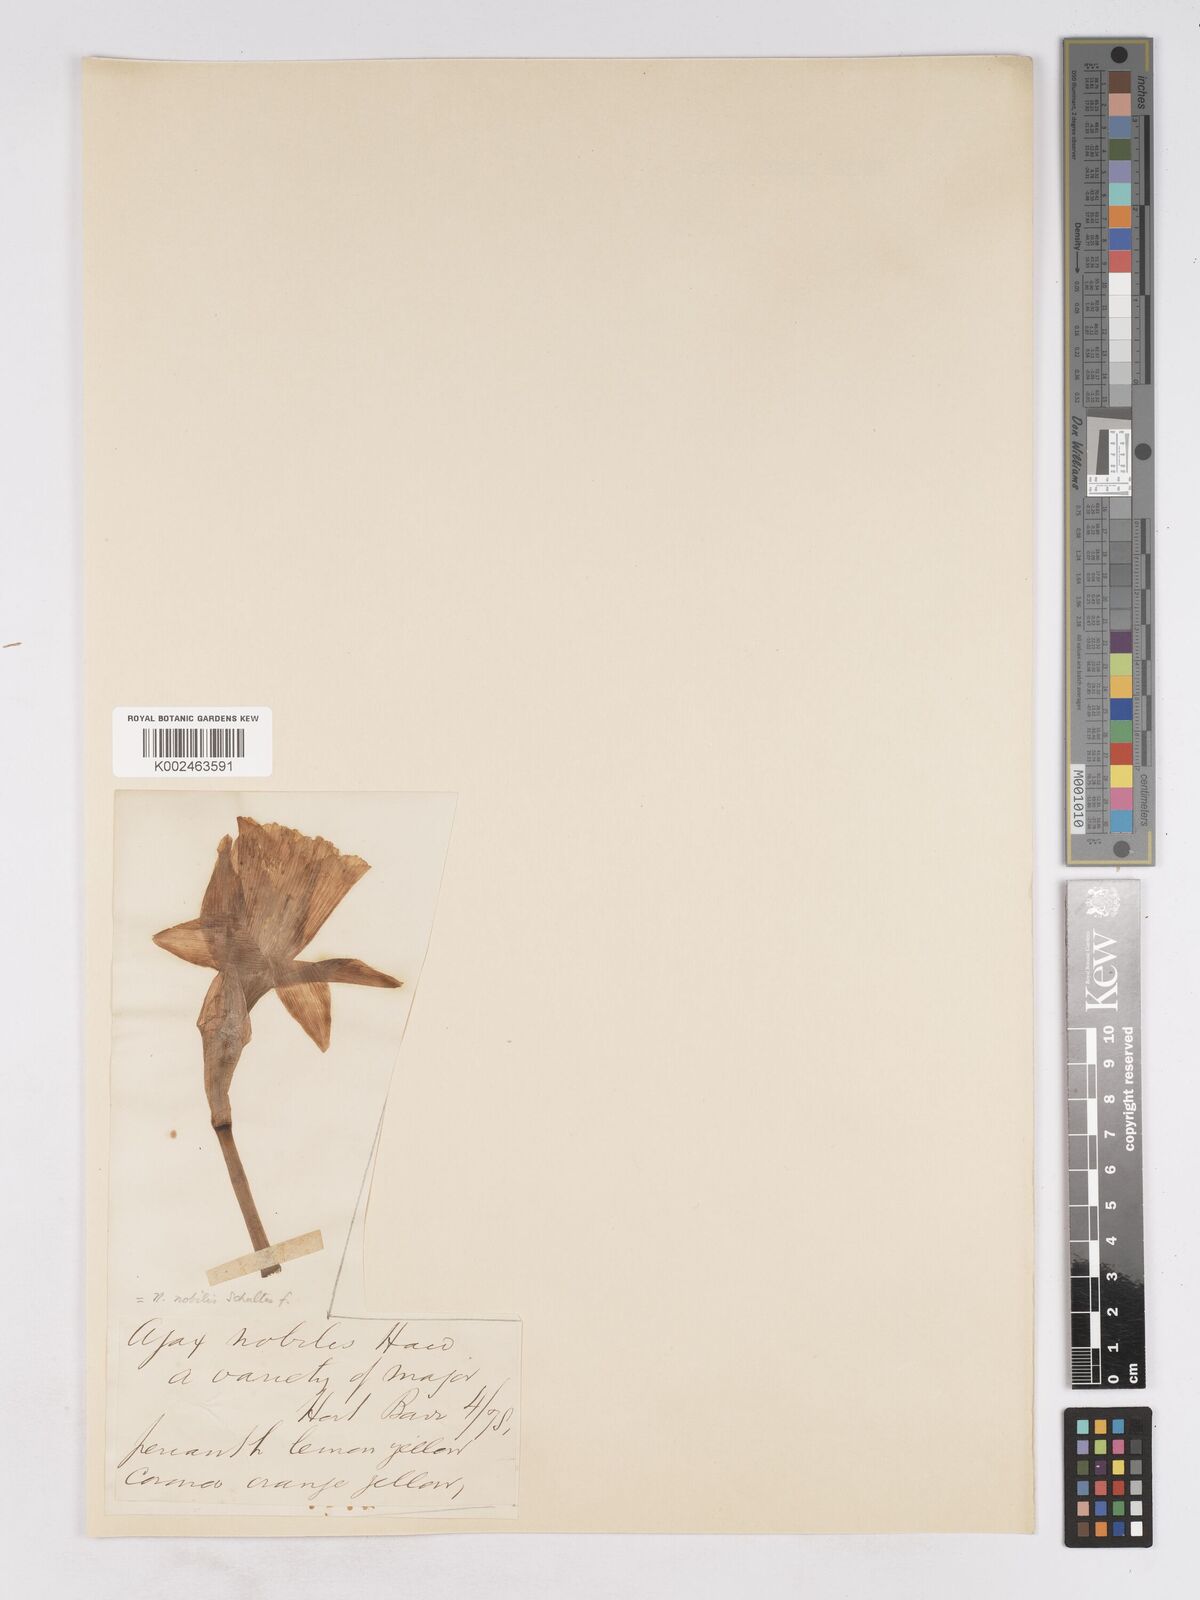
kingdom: Plantae
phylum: Tracheophyta
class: Liliopsida
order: Asparagales
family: Amaryllidaceae
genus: Narcissus
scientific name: Narcissus nobilis
